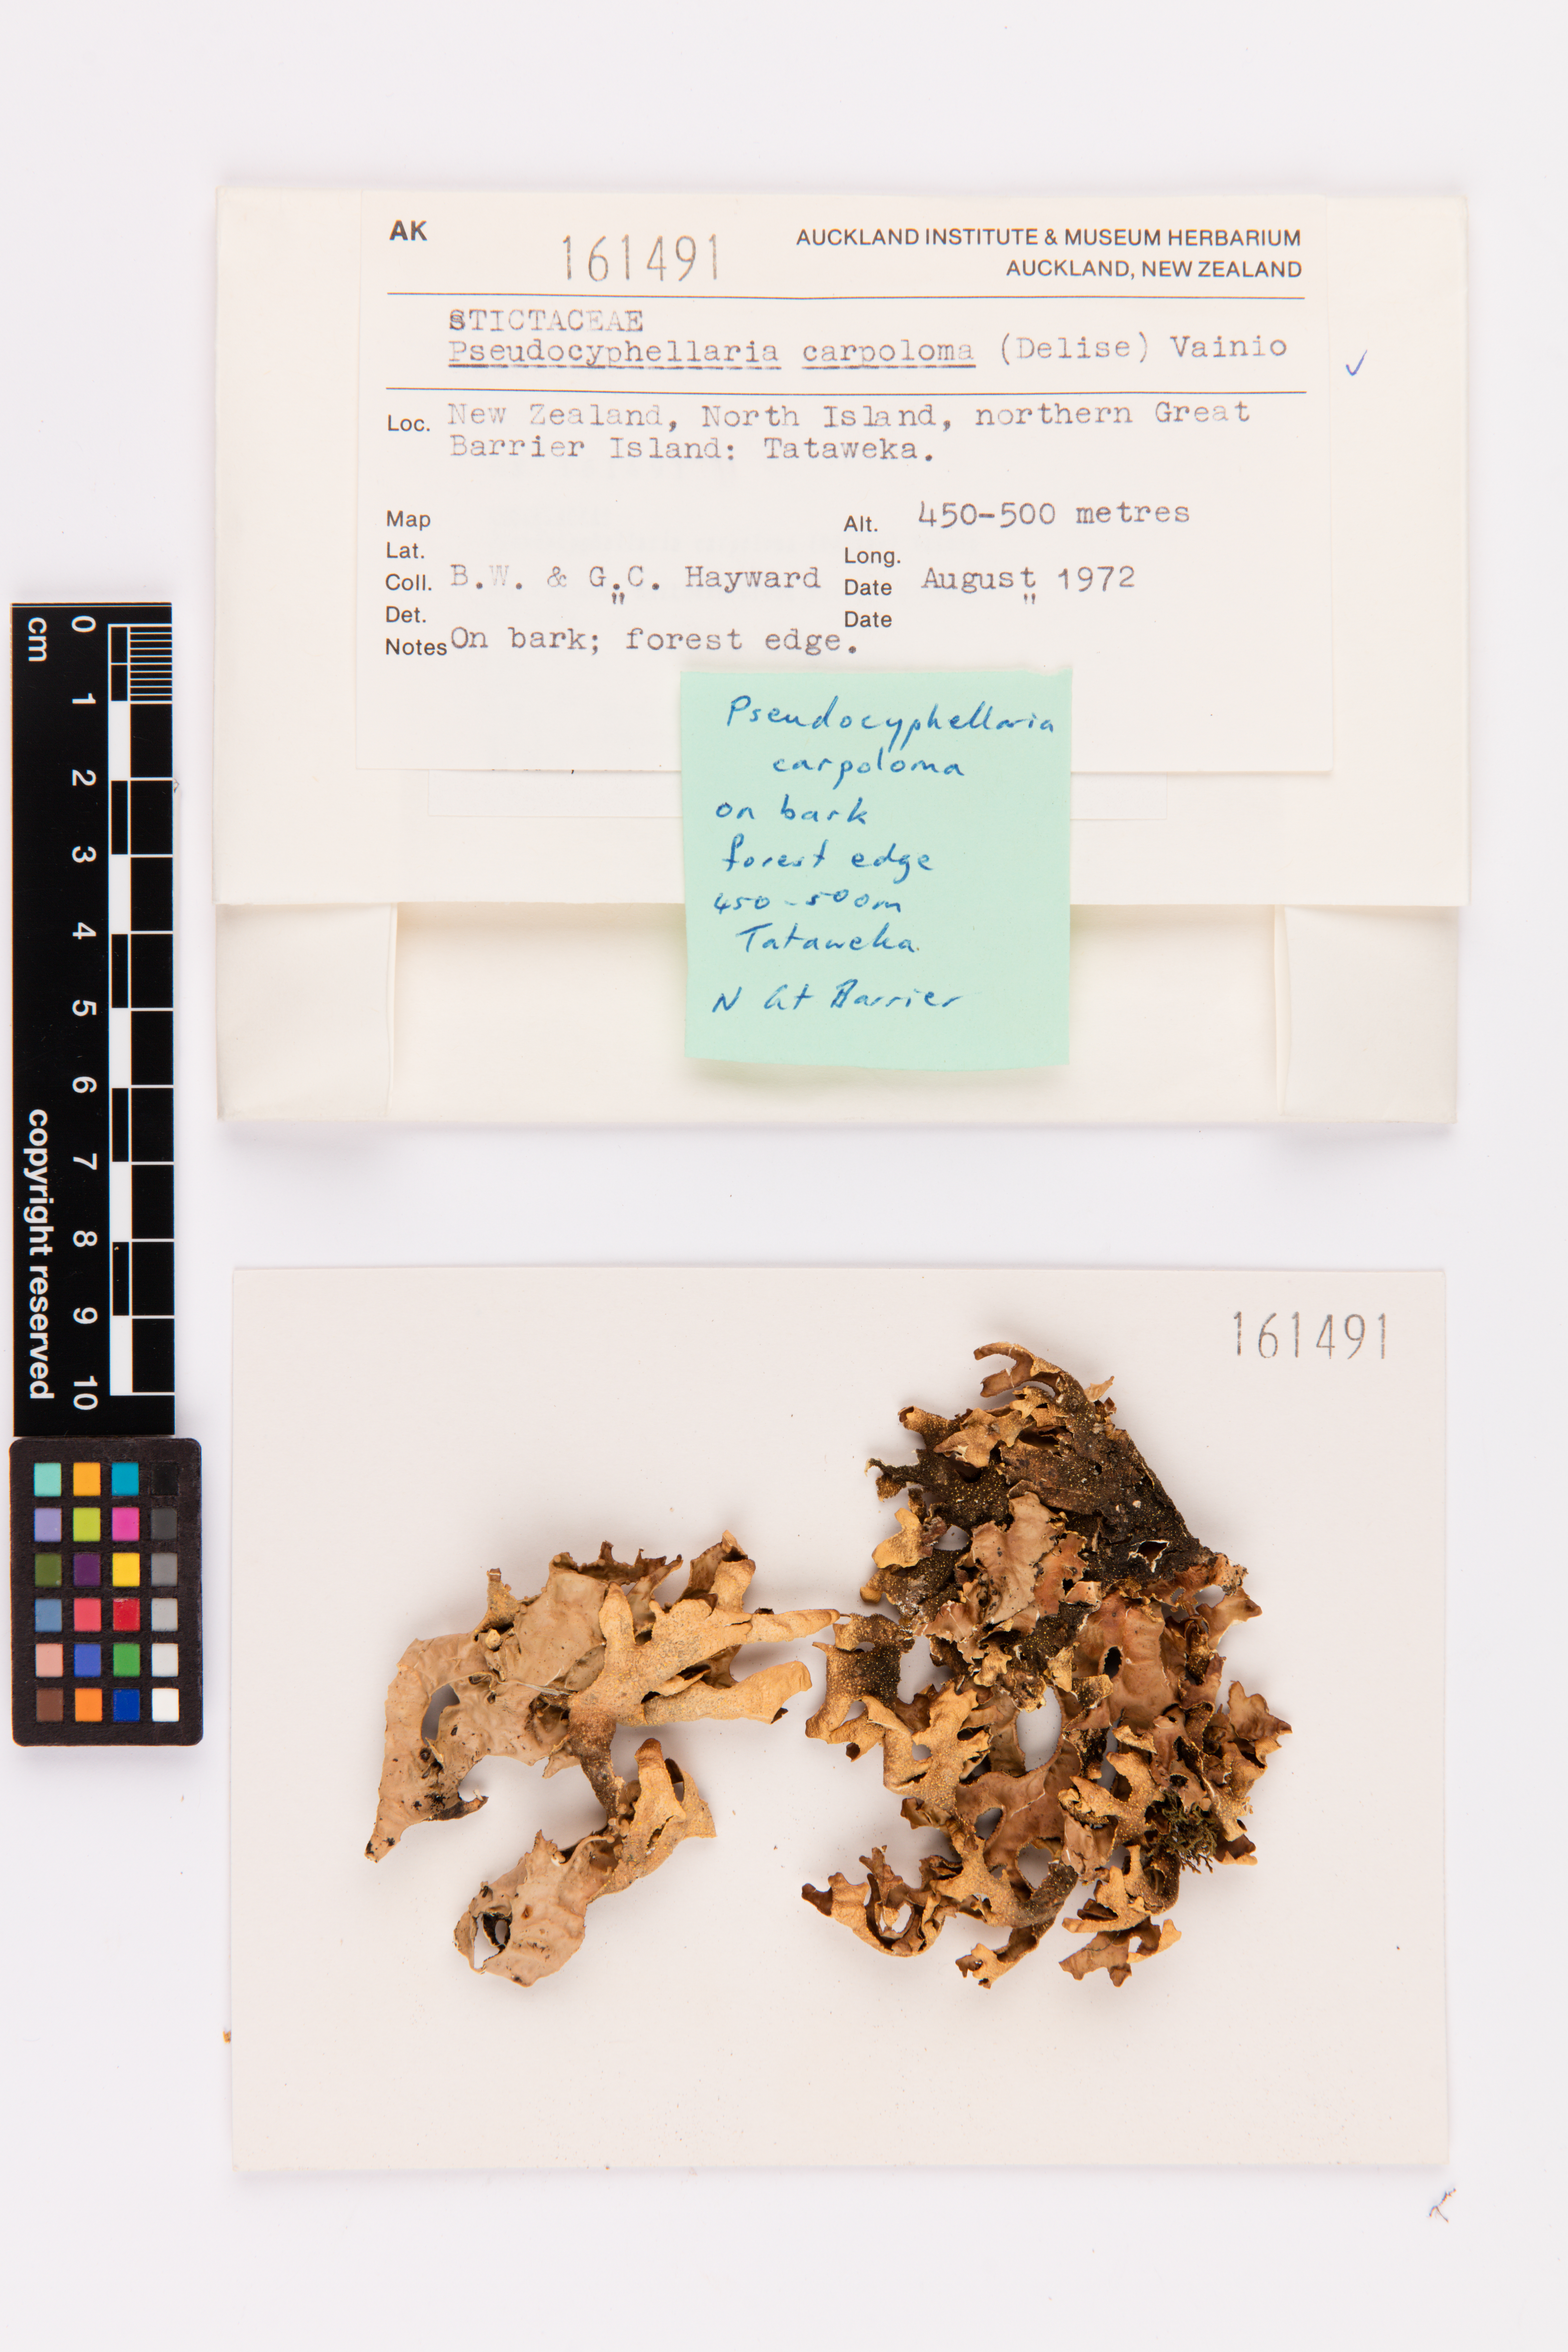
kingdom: Fungi
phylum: Ascomycota
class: Lecanoromycetes
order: Peltigerales
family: Lobariaceae
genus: Pseudocyphellaria
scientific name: Pseudocyphellaria carpoloma
